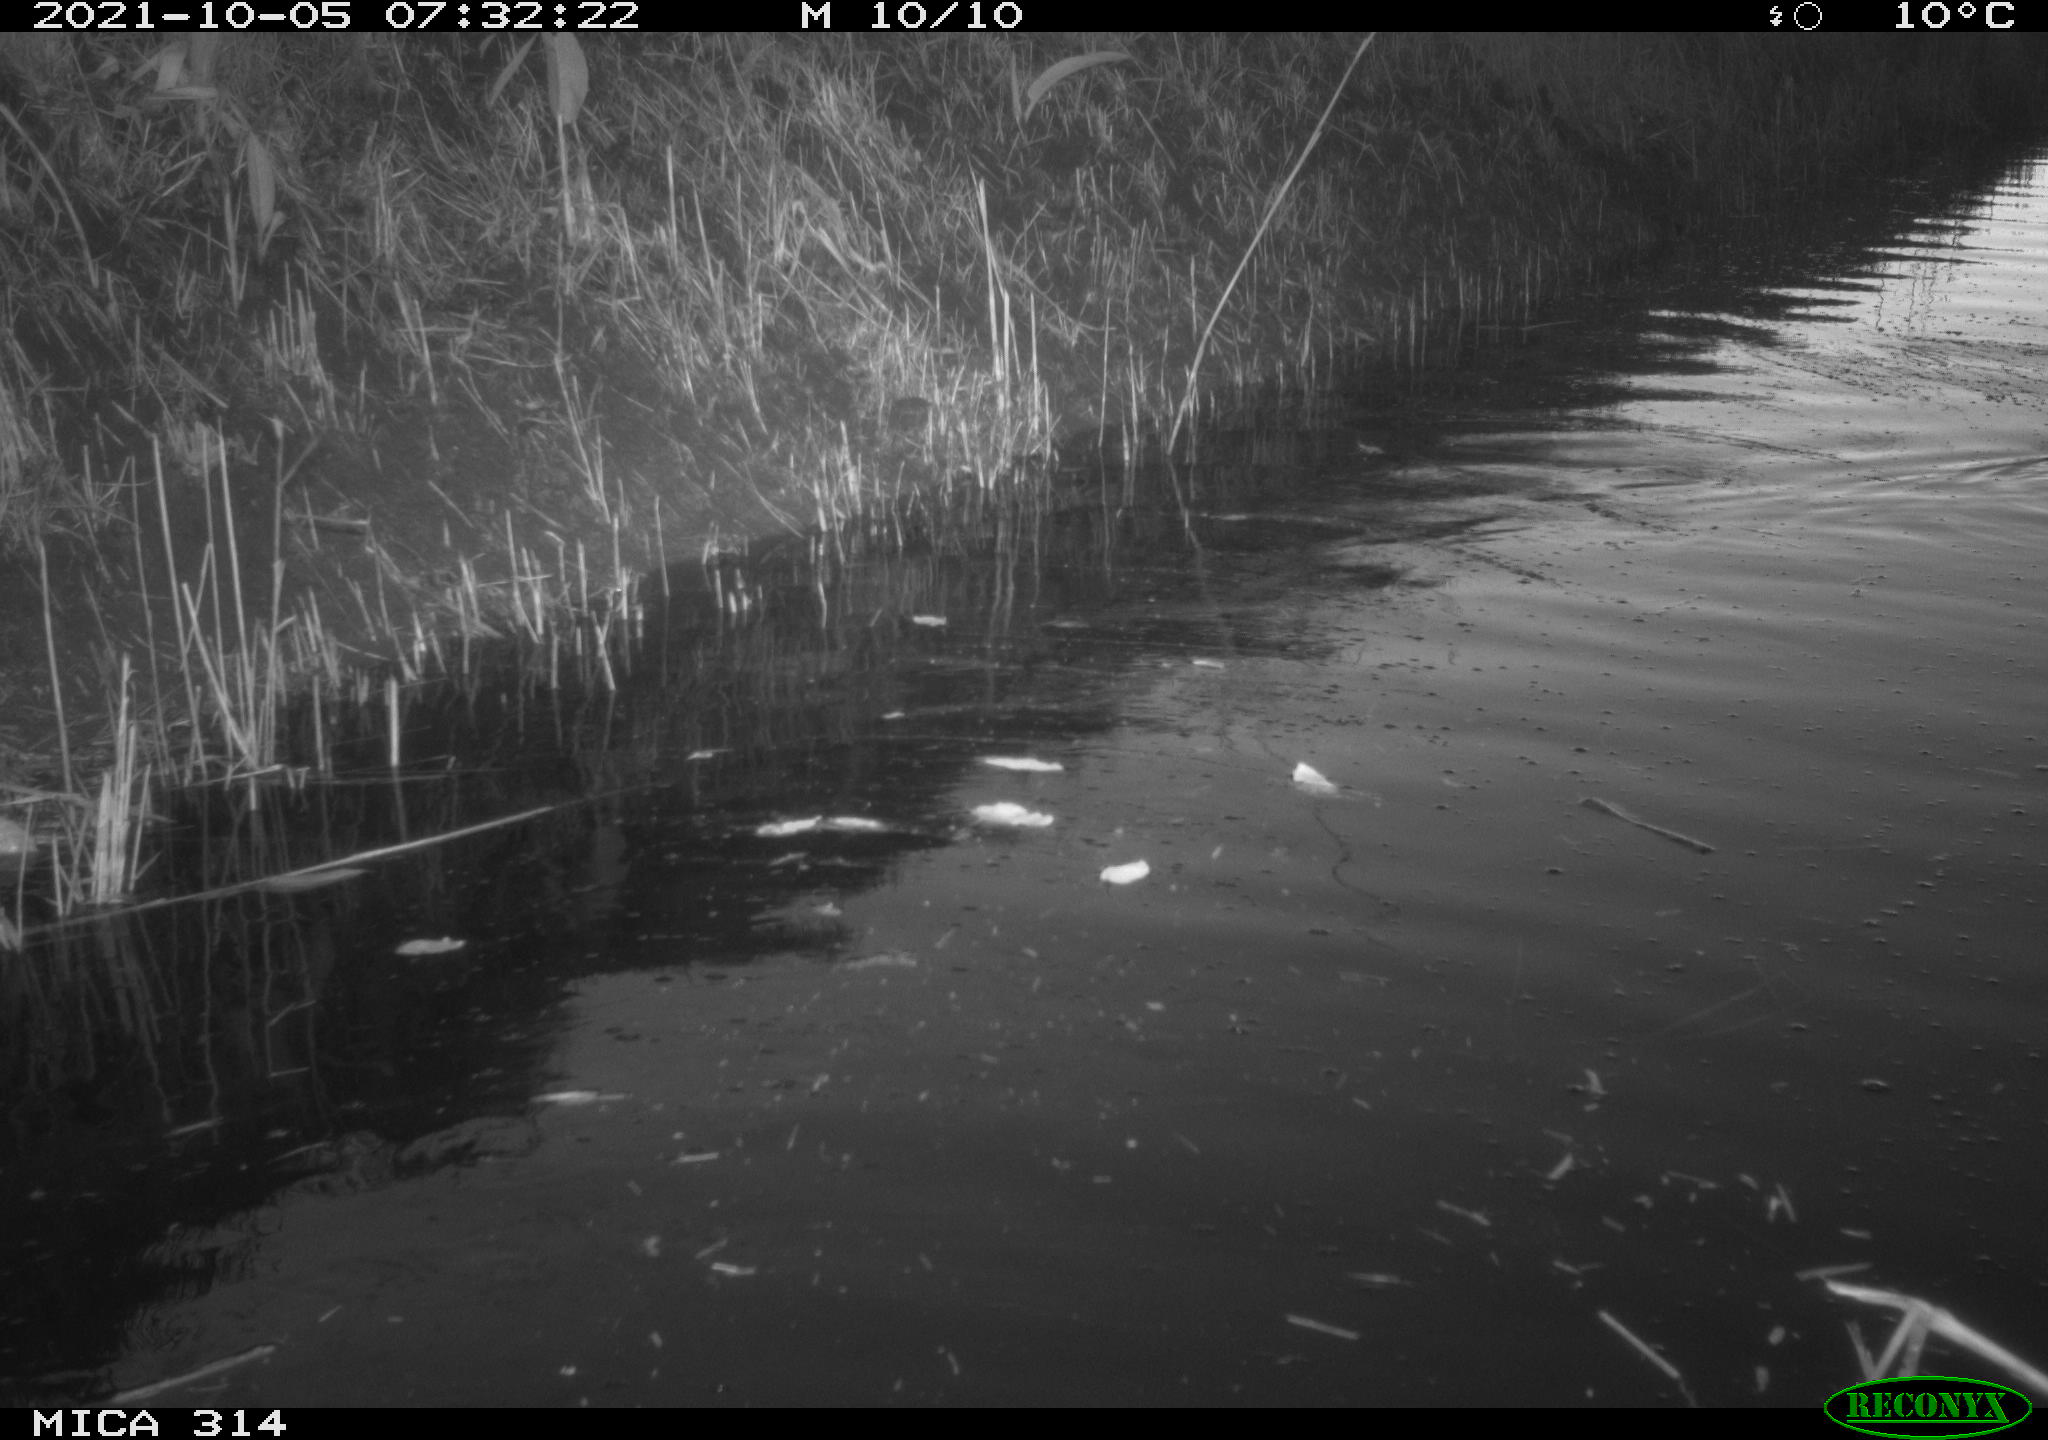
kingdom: Animalia
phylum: Chordata
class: Aves
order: Gruiformes
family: Rallidae
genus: Gallinula
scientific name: Gallinula chloropus
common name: Common moorhen
